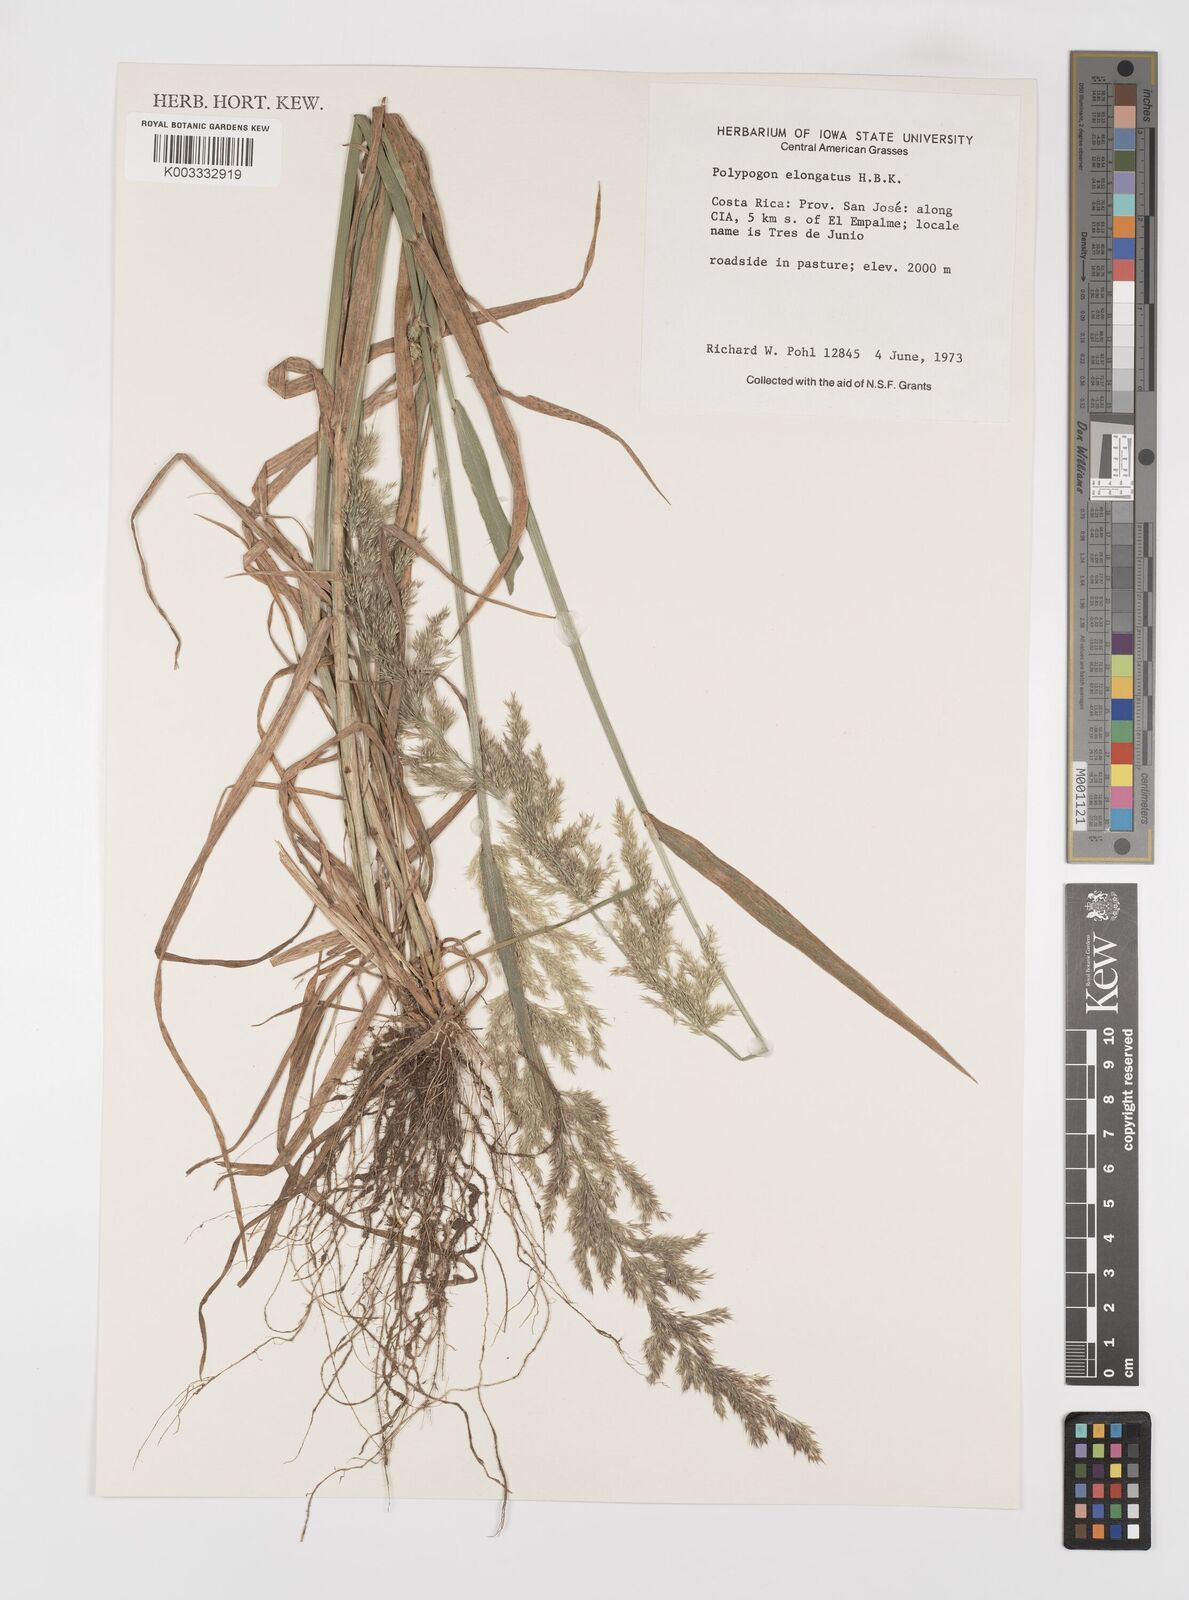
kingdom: Plantae
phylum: Tracheophyta
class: Liliopsida
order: Poales
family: Poaceae
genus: Polypogon
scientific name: Polypogon elongatus
